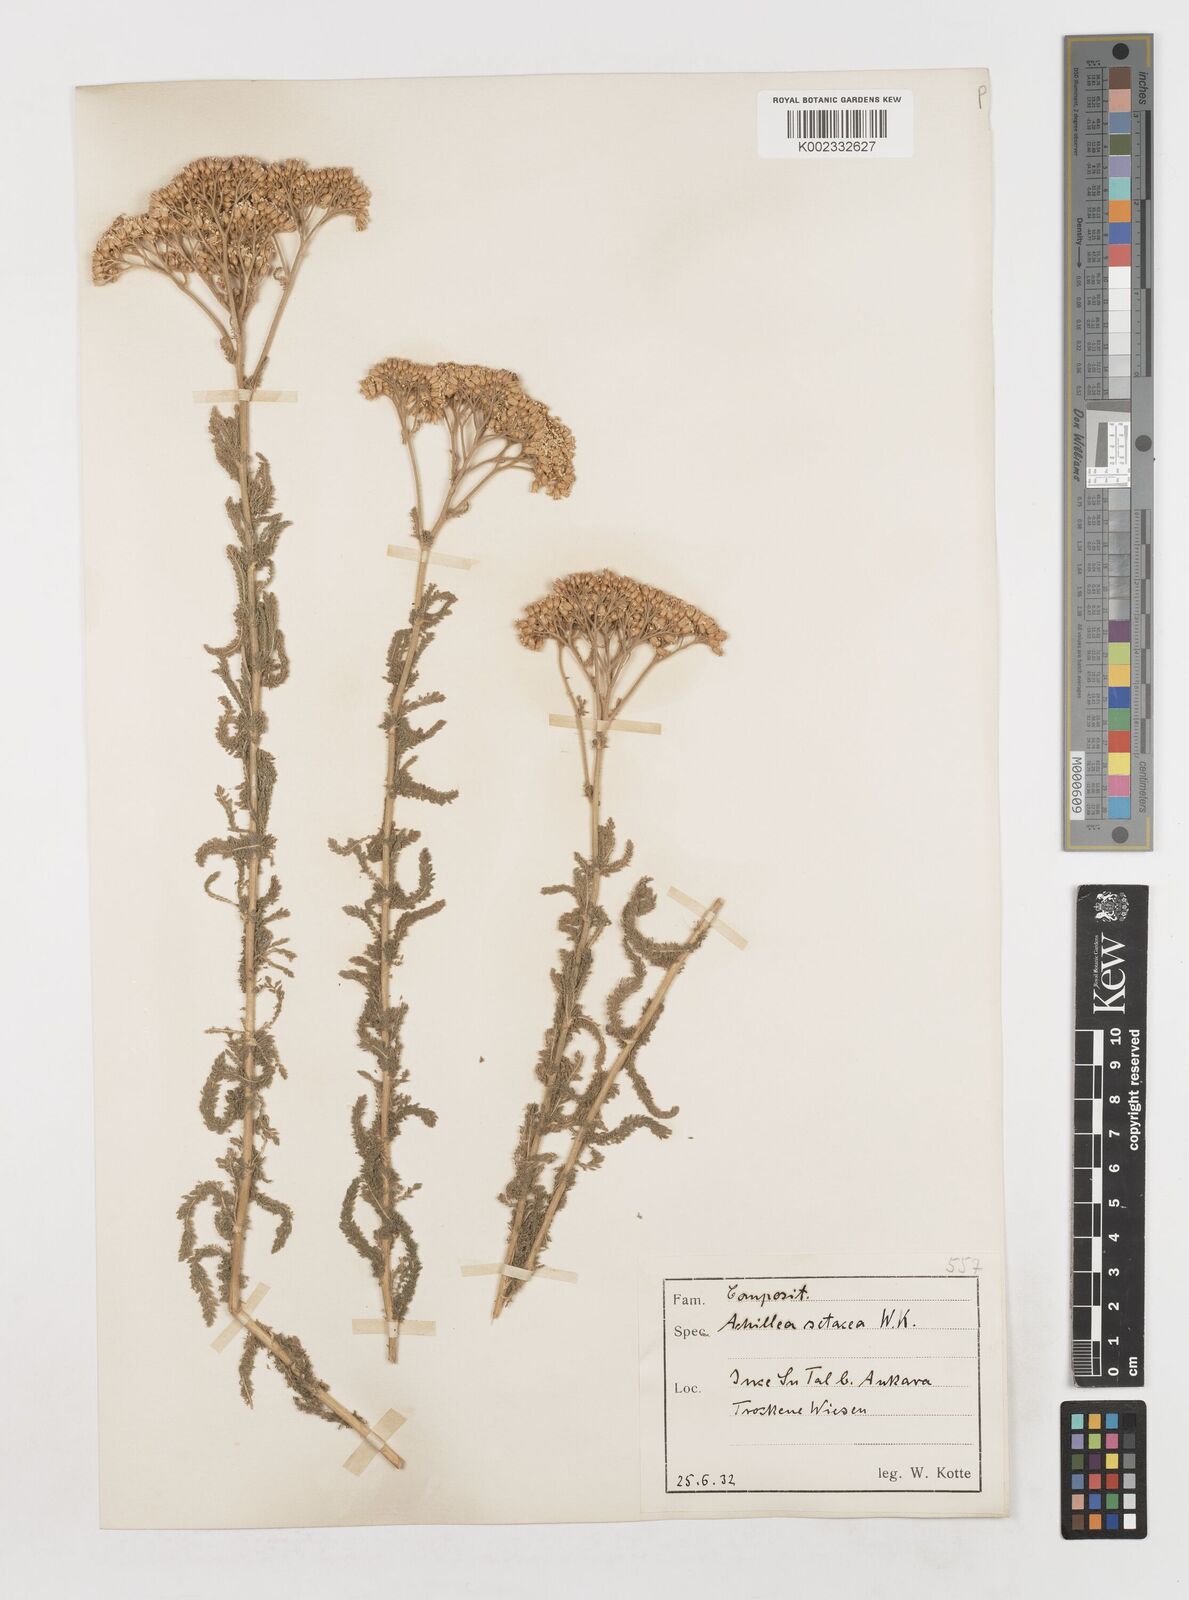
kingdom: Plantae
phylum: Tracheophyta
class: Magnoliopsida
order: Asterales
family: Asteraceae
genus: Achillea
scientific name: Achillea setacea
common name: Bristly yarrow
